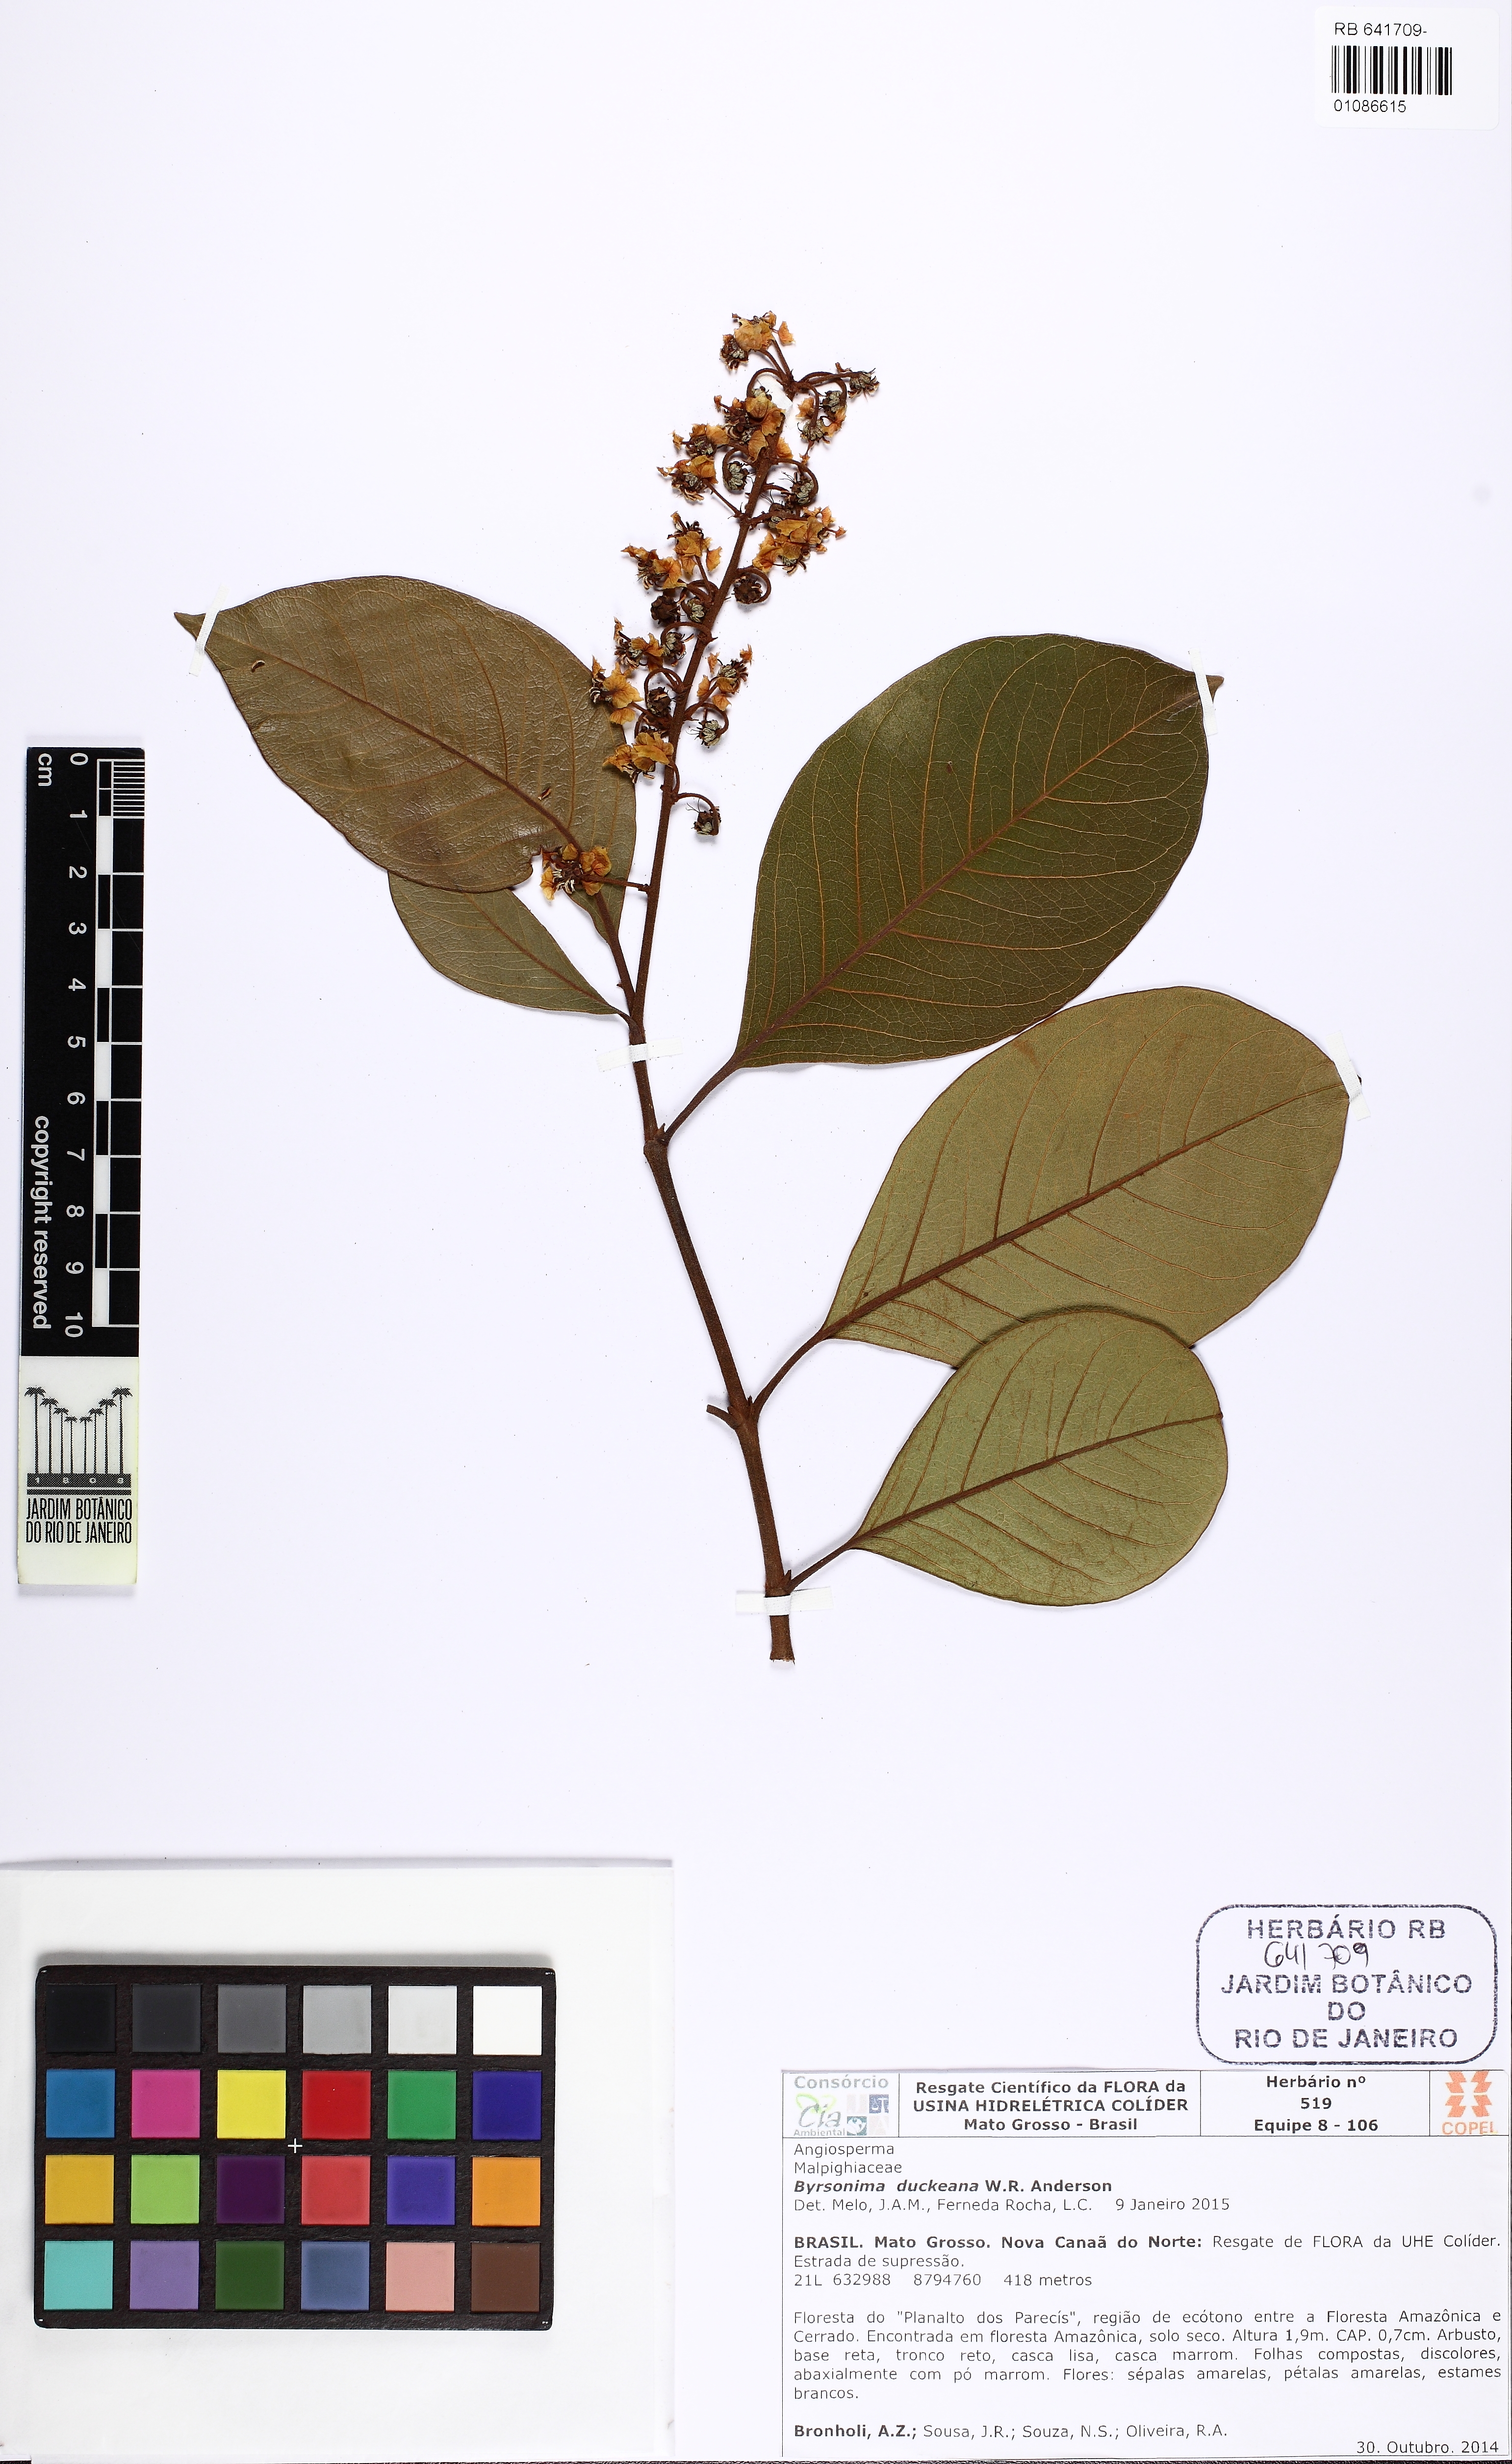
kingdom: Plantae
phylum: Tracheophyta
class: Magnoliopsida
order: Malpighiales
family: Malpighiaceae
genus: Byrsonima
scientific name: Byrsonima duckeana
